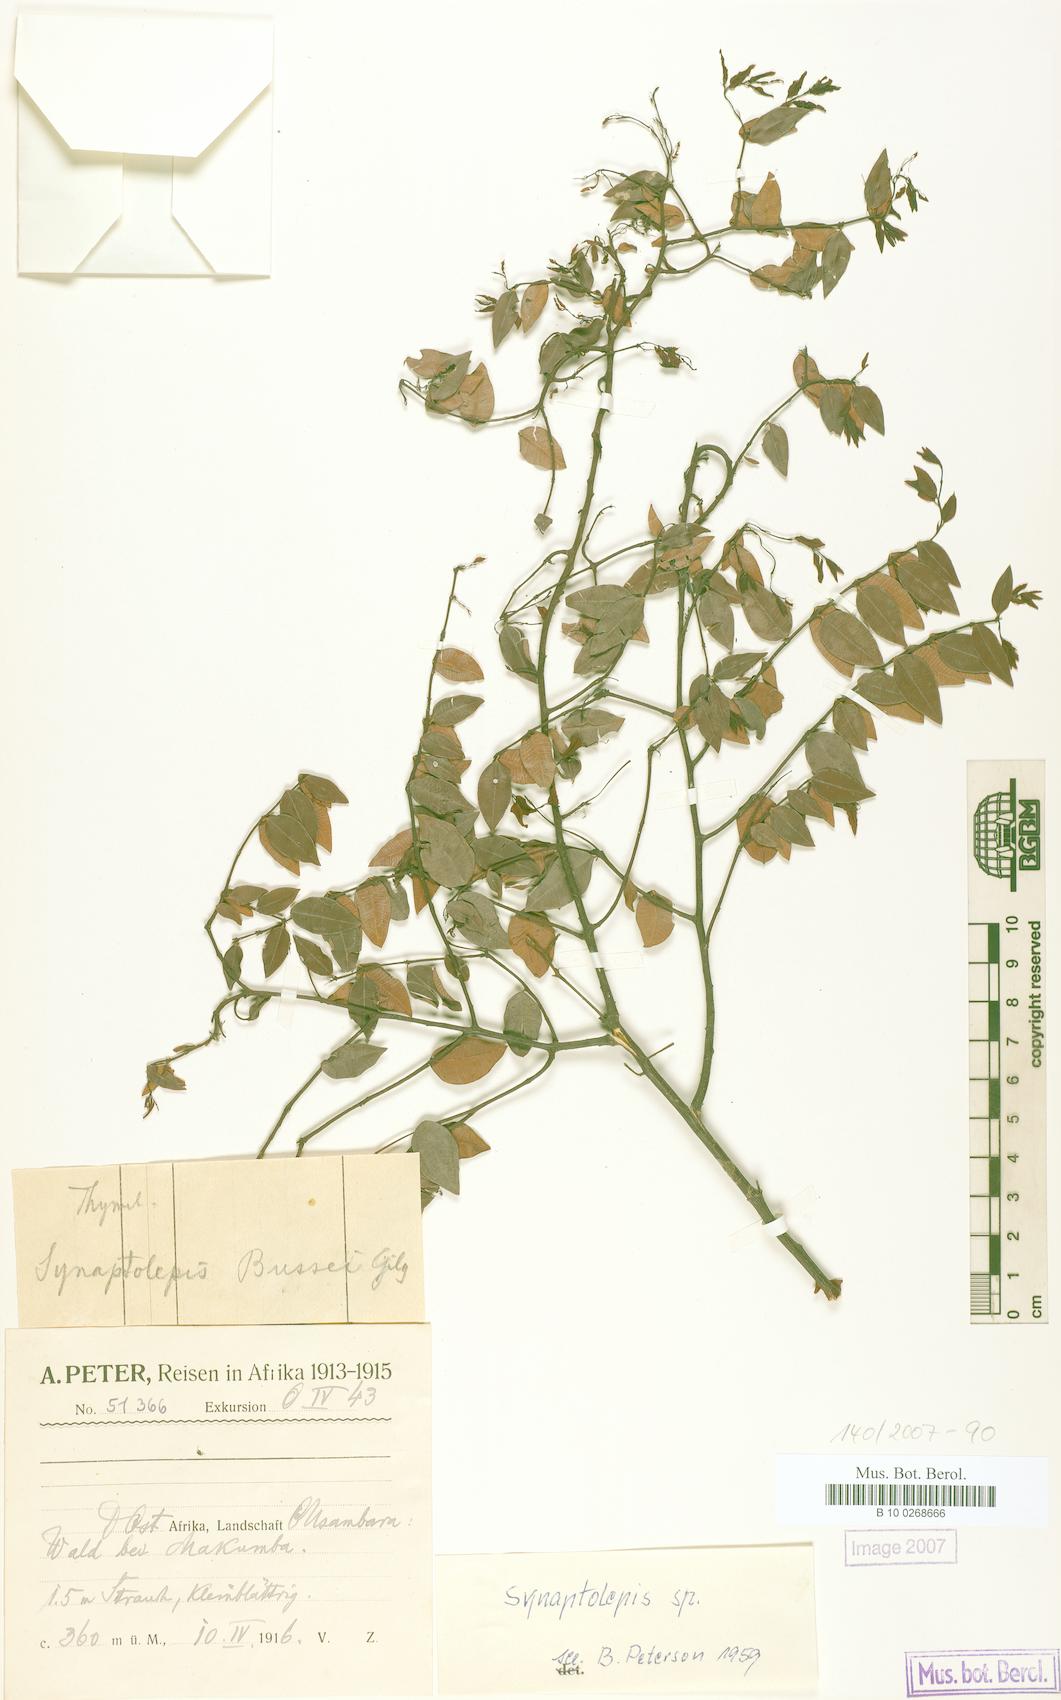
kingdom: Plantae
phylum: Tracheophyta
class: Magnoliopsida
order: Malvales
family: Thymelaeaceae
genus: Synaptolepis
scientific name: Synaptolepis
